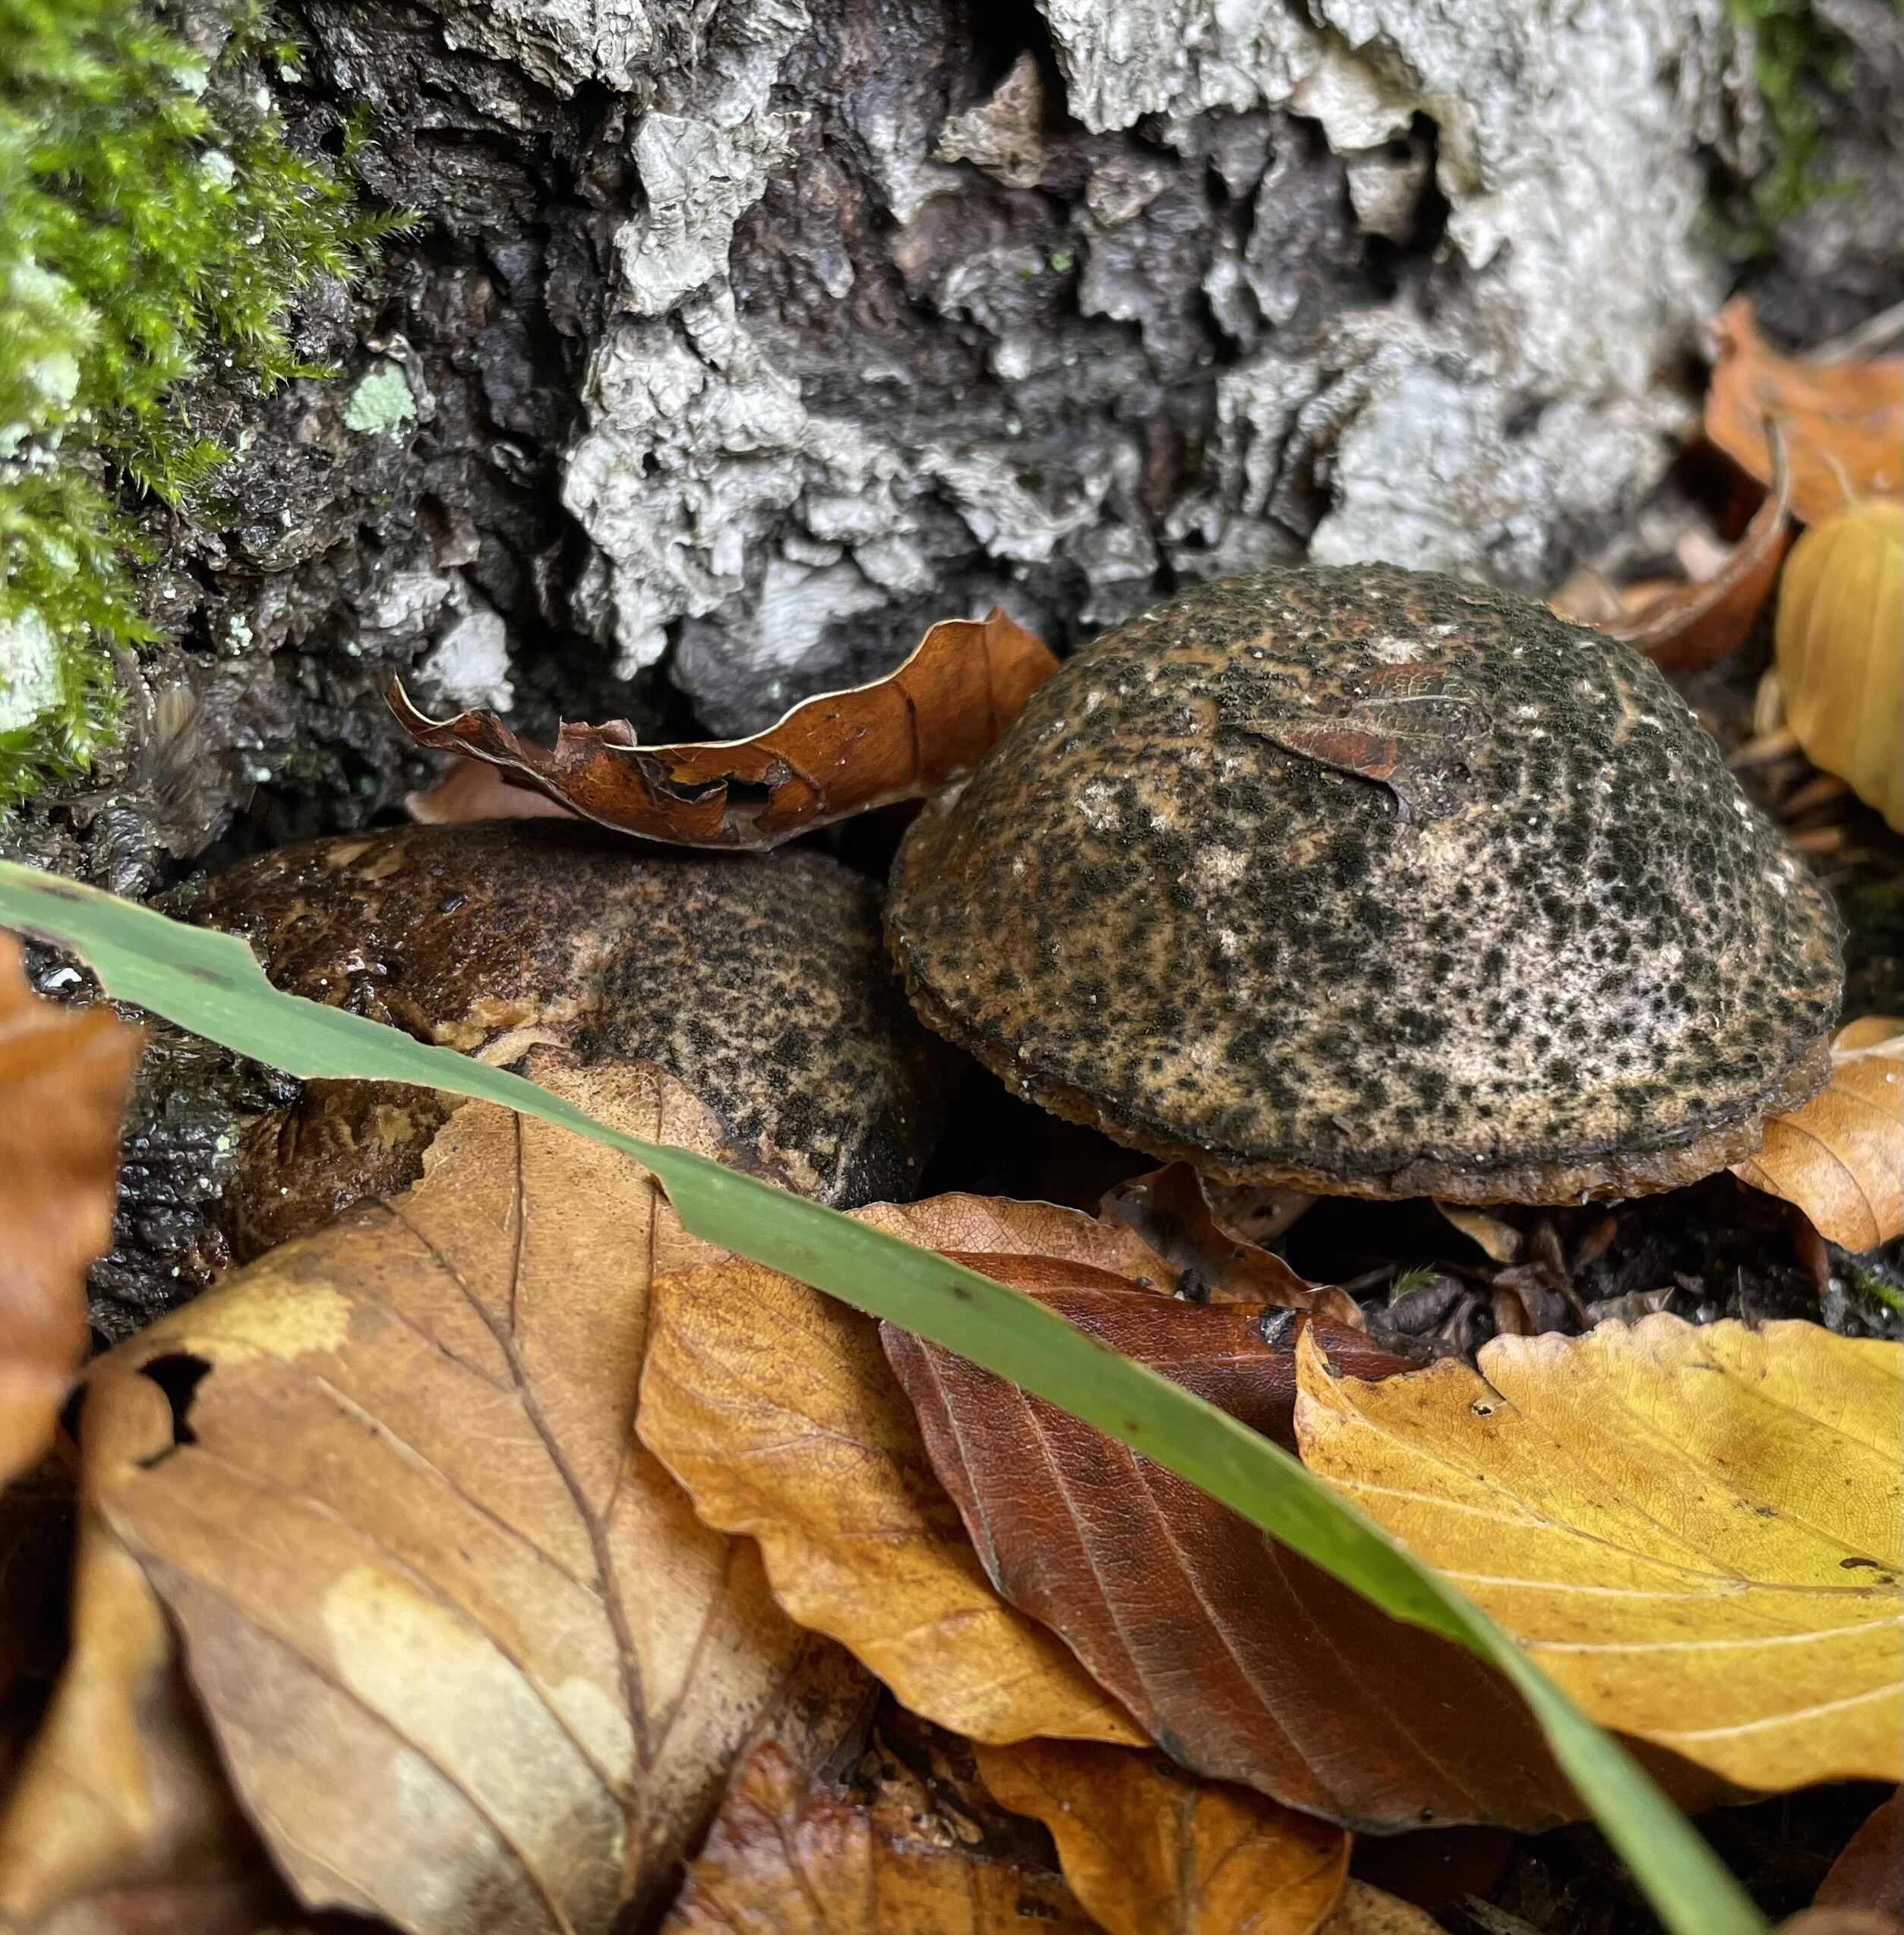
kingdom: Fungi
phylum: Basidiomycota
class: Agaricomycetes
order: Boletales
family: Boletaceae
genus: Xerocomellus
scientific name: Xerocomellus
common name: dværgrørhat
